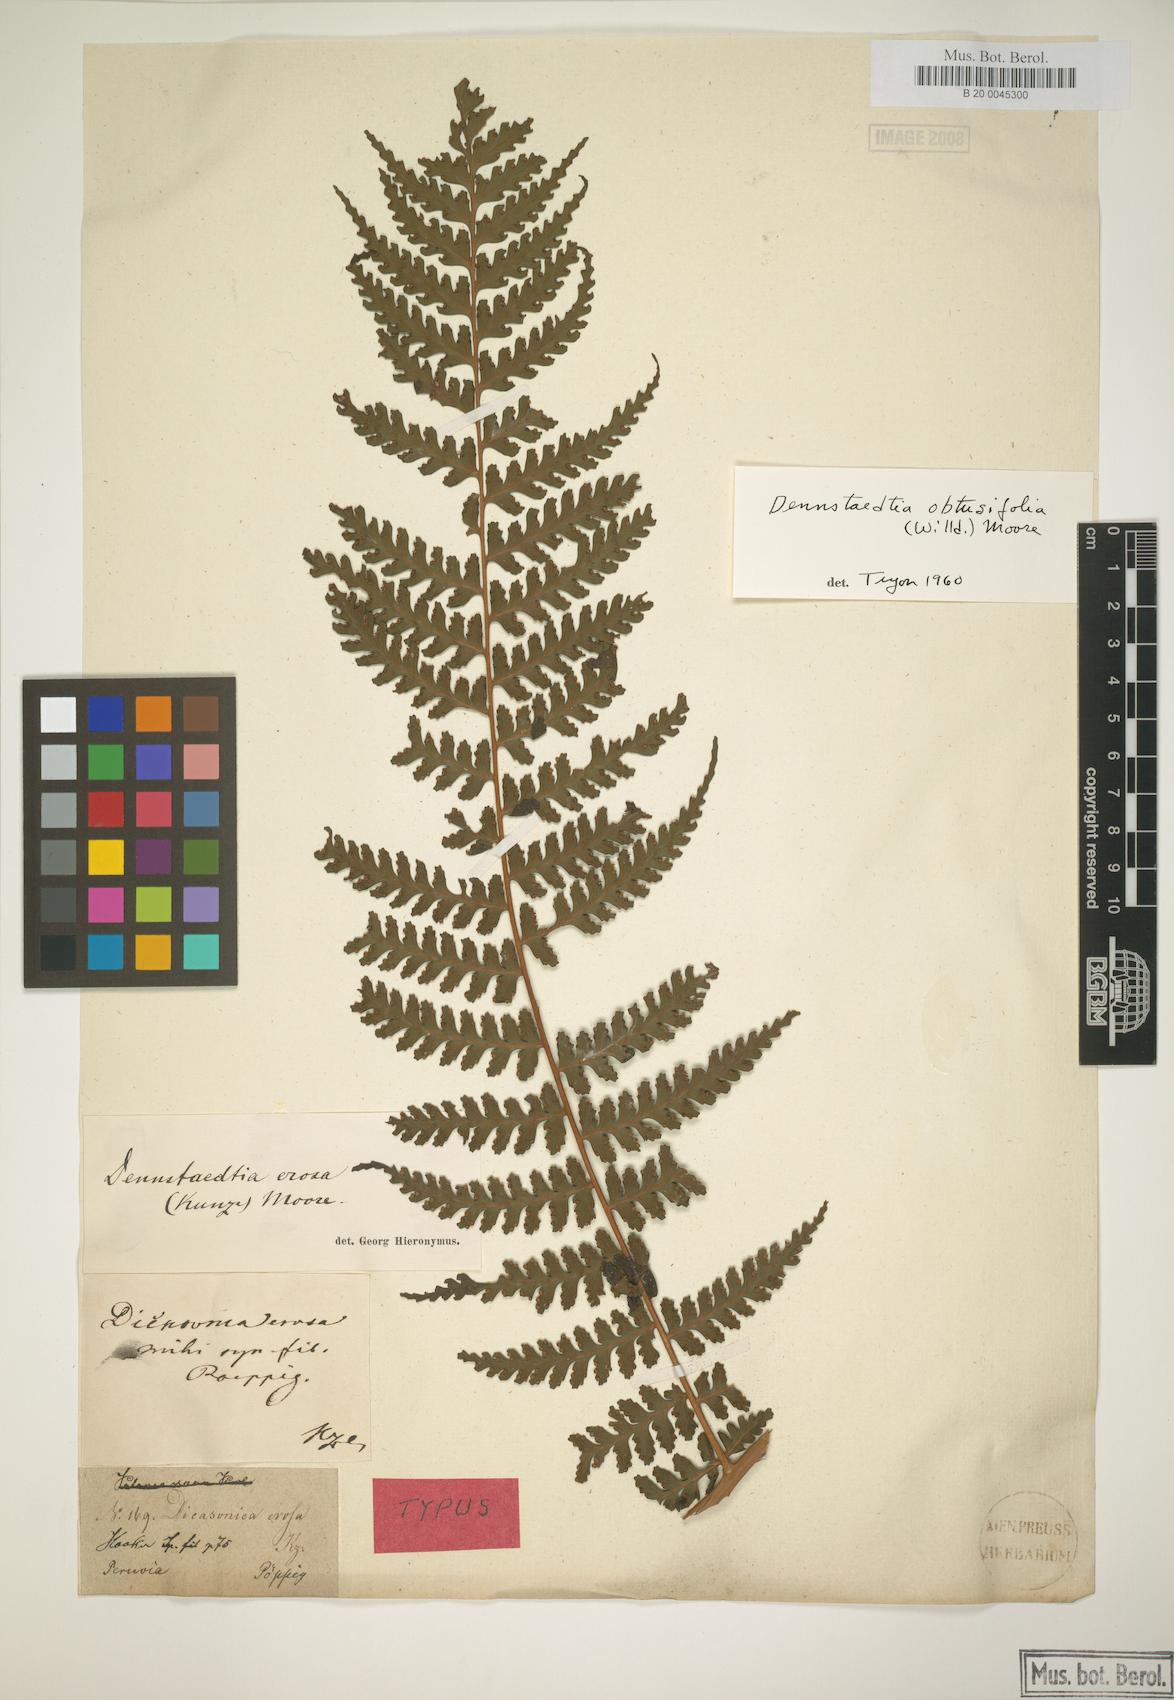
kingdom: Plantae
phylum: Tracheophyta
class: Polypodiopsida
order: Polypodiales
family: Dennstaedtiaceae
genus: Dennstaedtia
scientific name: Dennstaedtia obtusifolia
